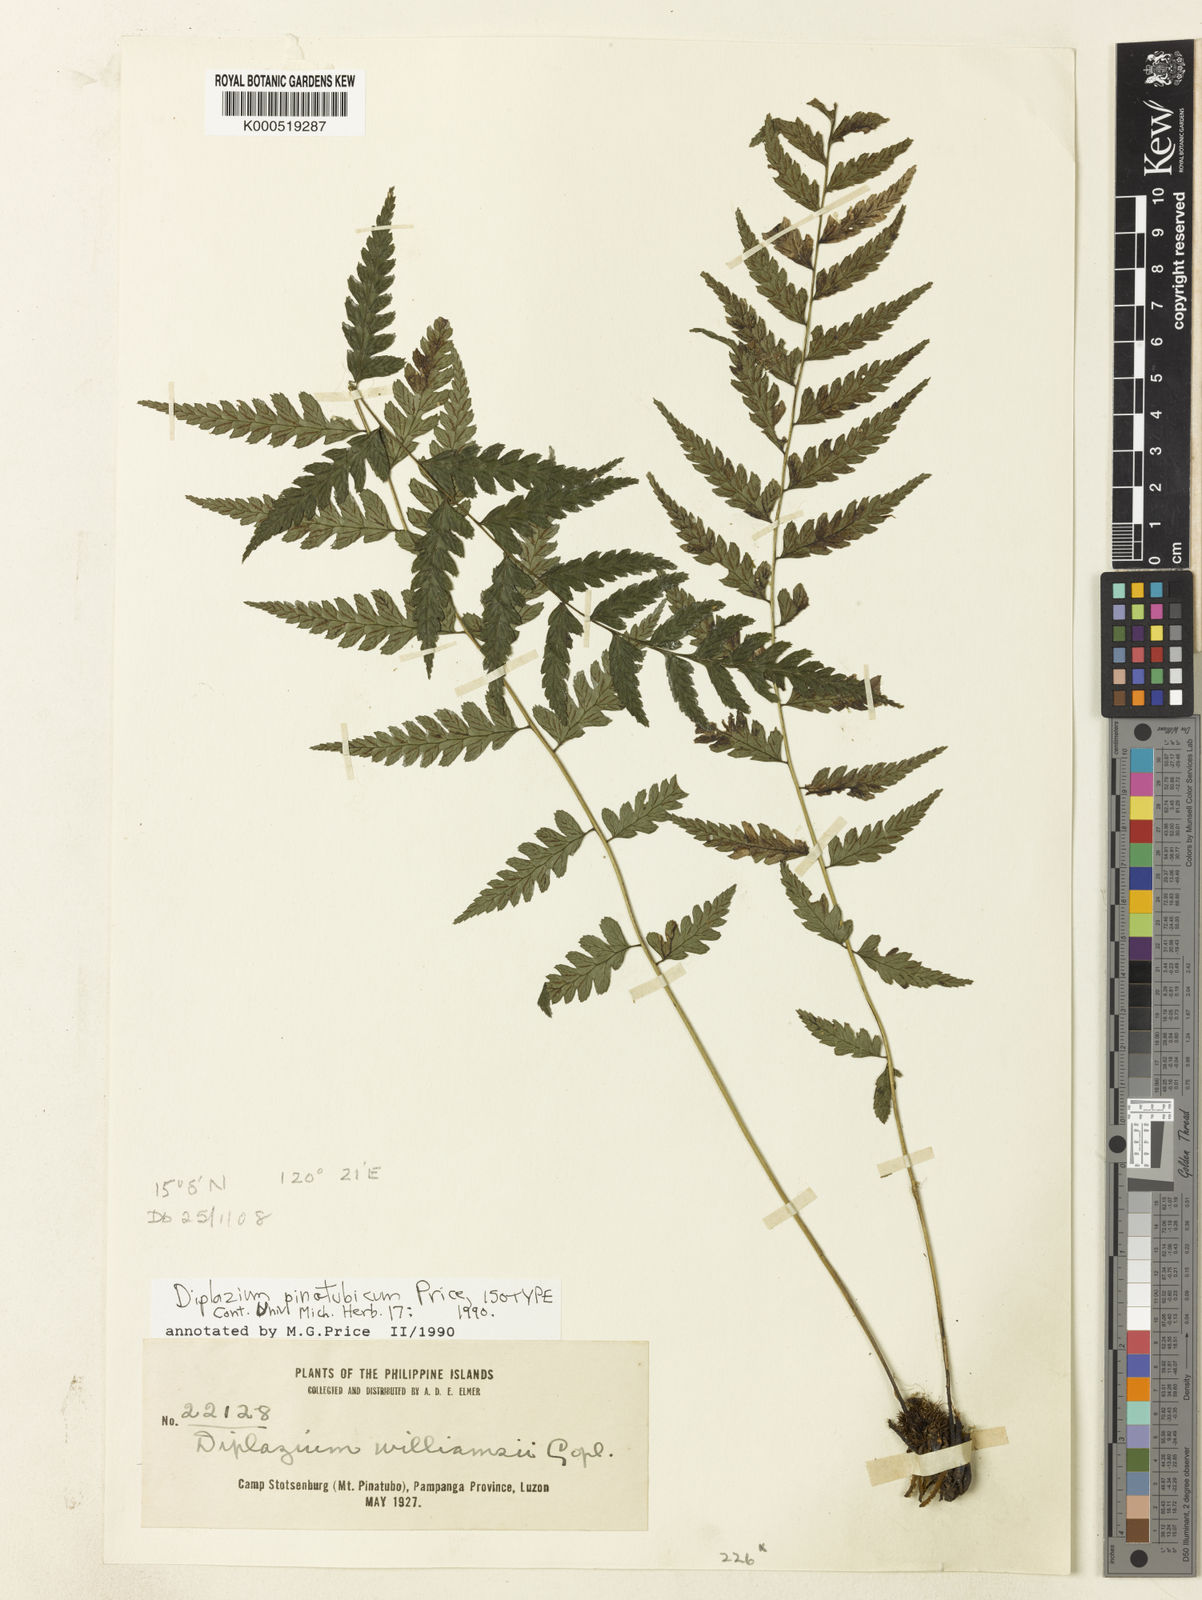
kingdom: Plantae
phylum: Tracheophyta
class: Polypodiopsida
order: Polypodiales
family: Athyriaceae
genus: Diplazium
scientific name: Diplazium pinatubicum
